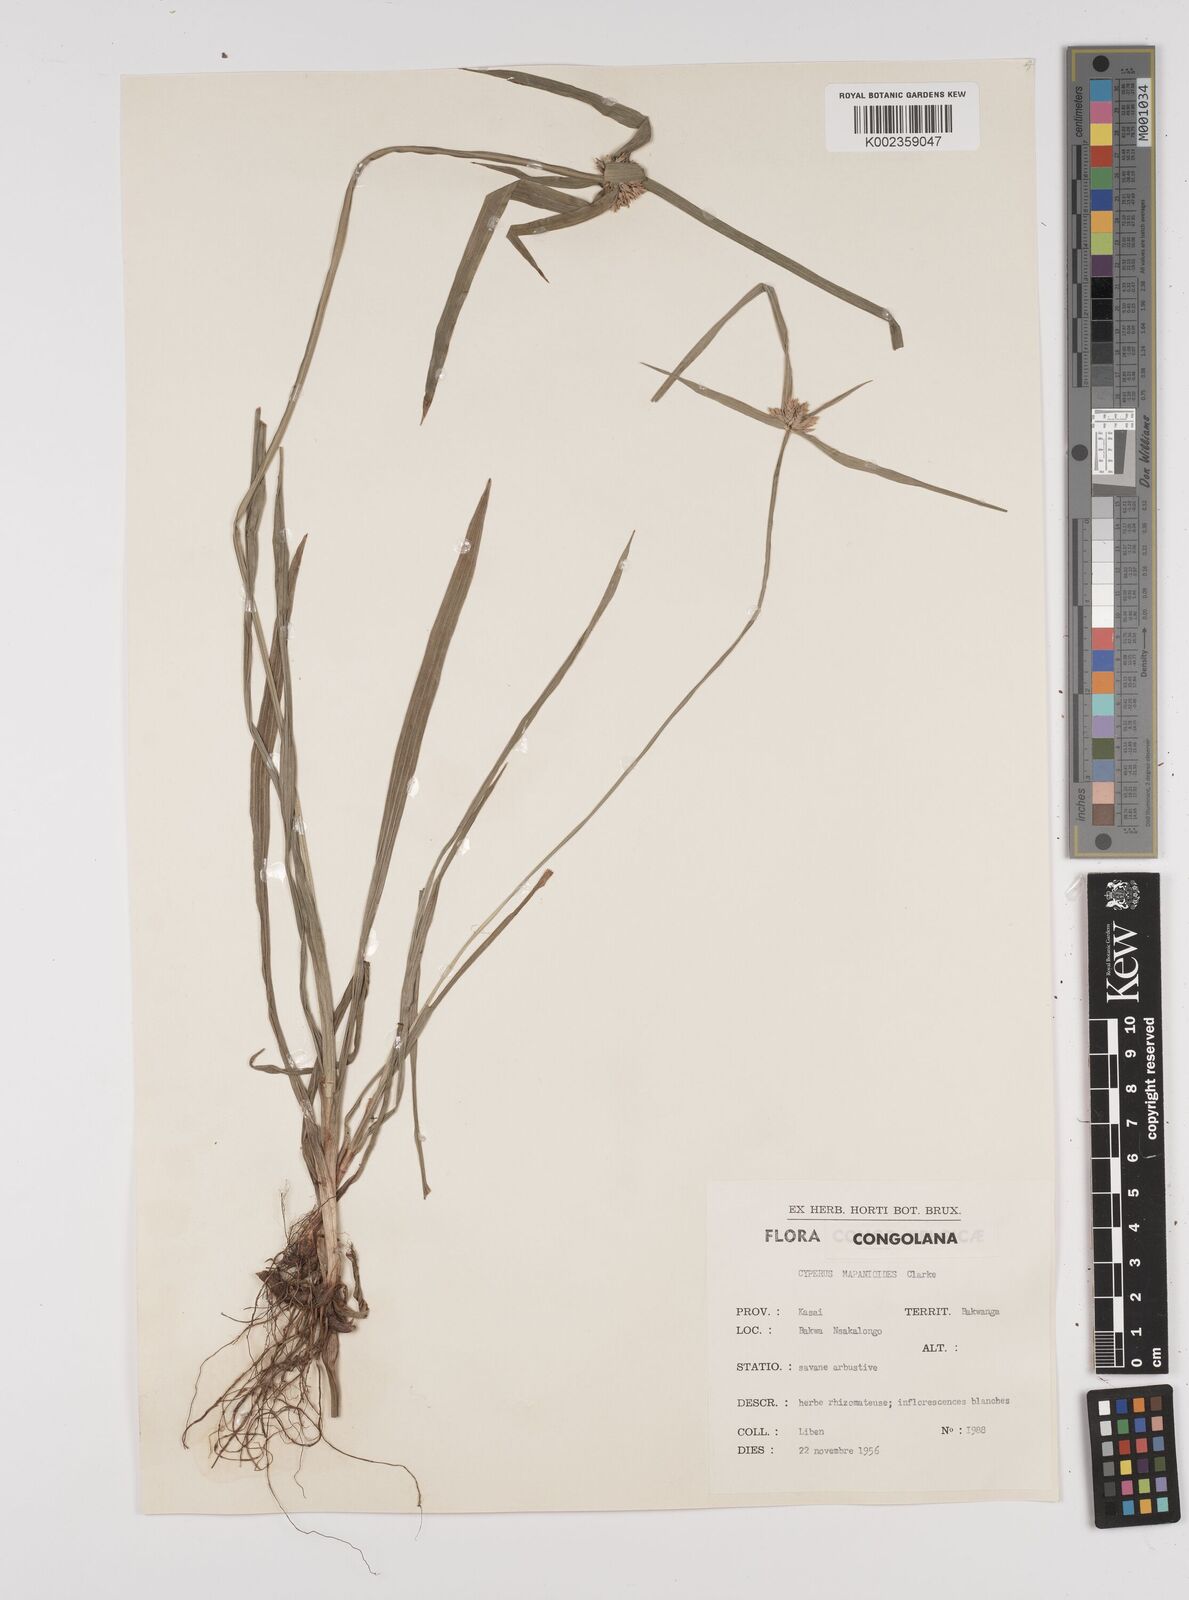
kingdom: Plantae
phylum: Tracheophyta
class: Liliopsida
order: Poales
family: Cyperaceae
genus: Cyperus
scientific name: Cyperus mapanioides
